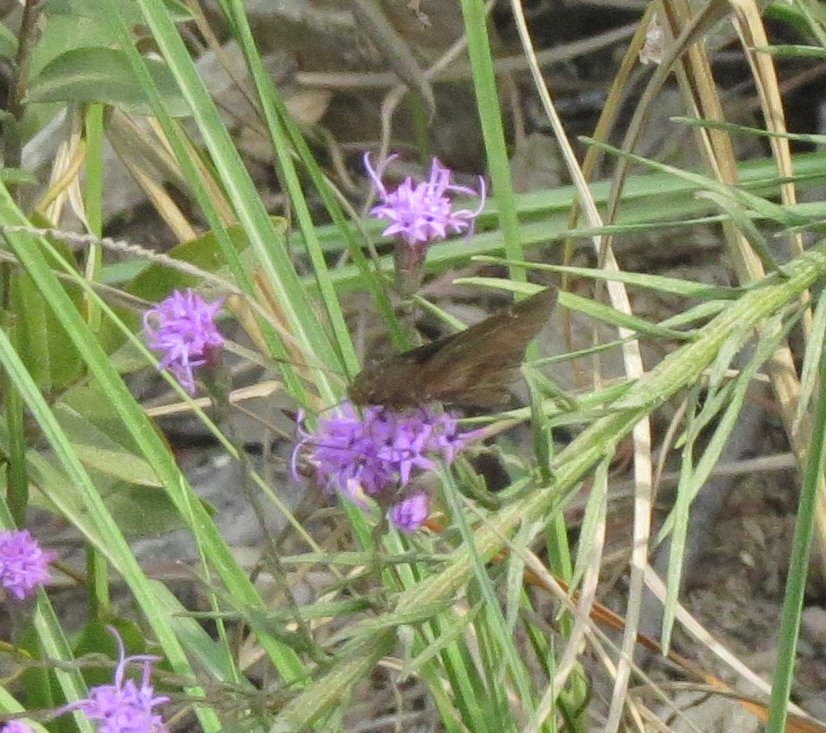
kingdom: Animalia
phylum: Arthropoda
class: Insecta
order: Lepidoptera
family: Hesperiidae
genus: Lerema
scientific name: Lerema accius
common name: Clouded Skipper
